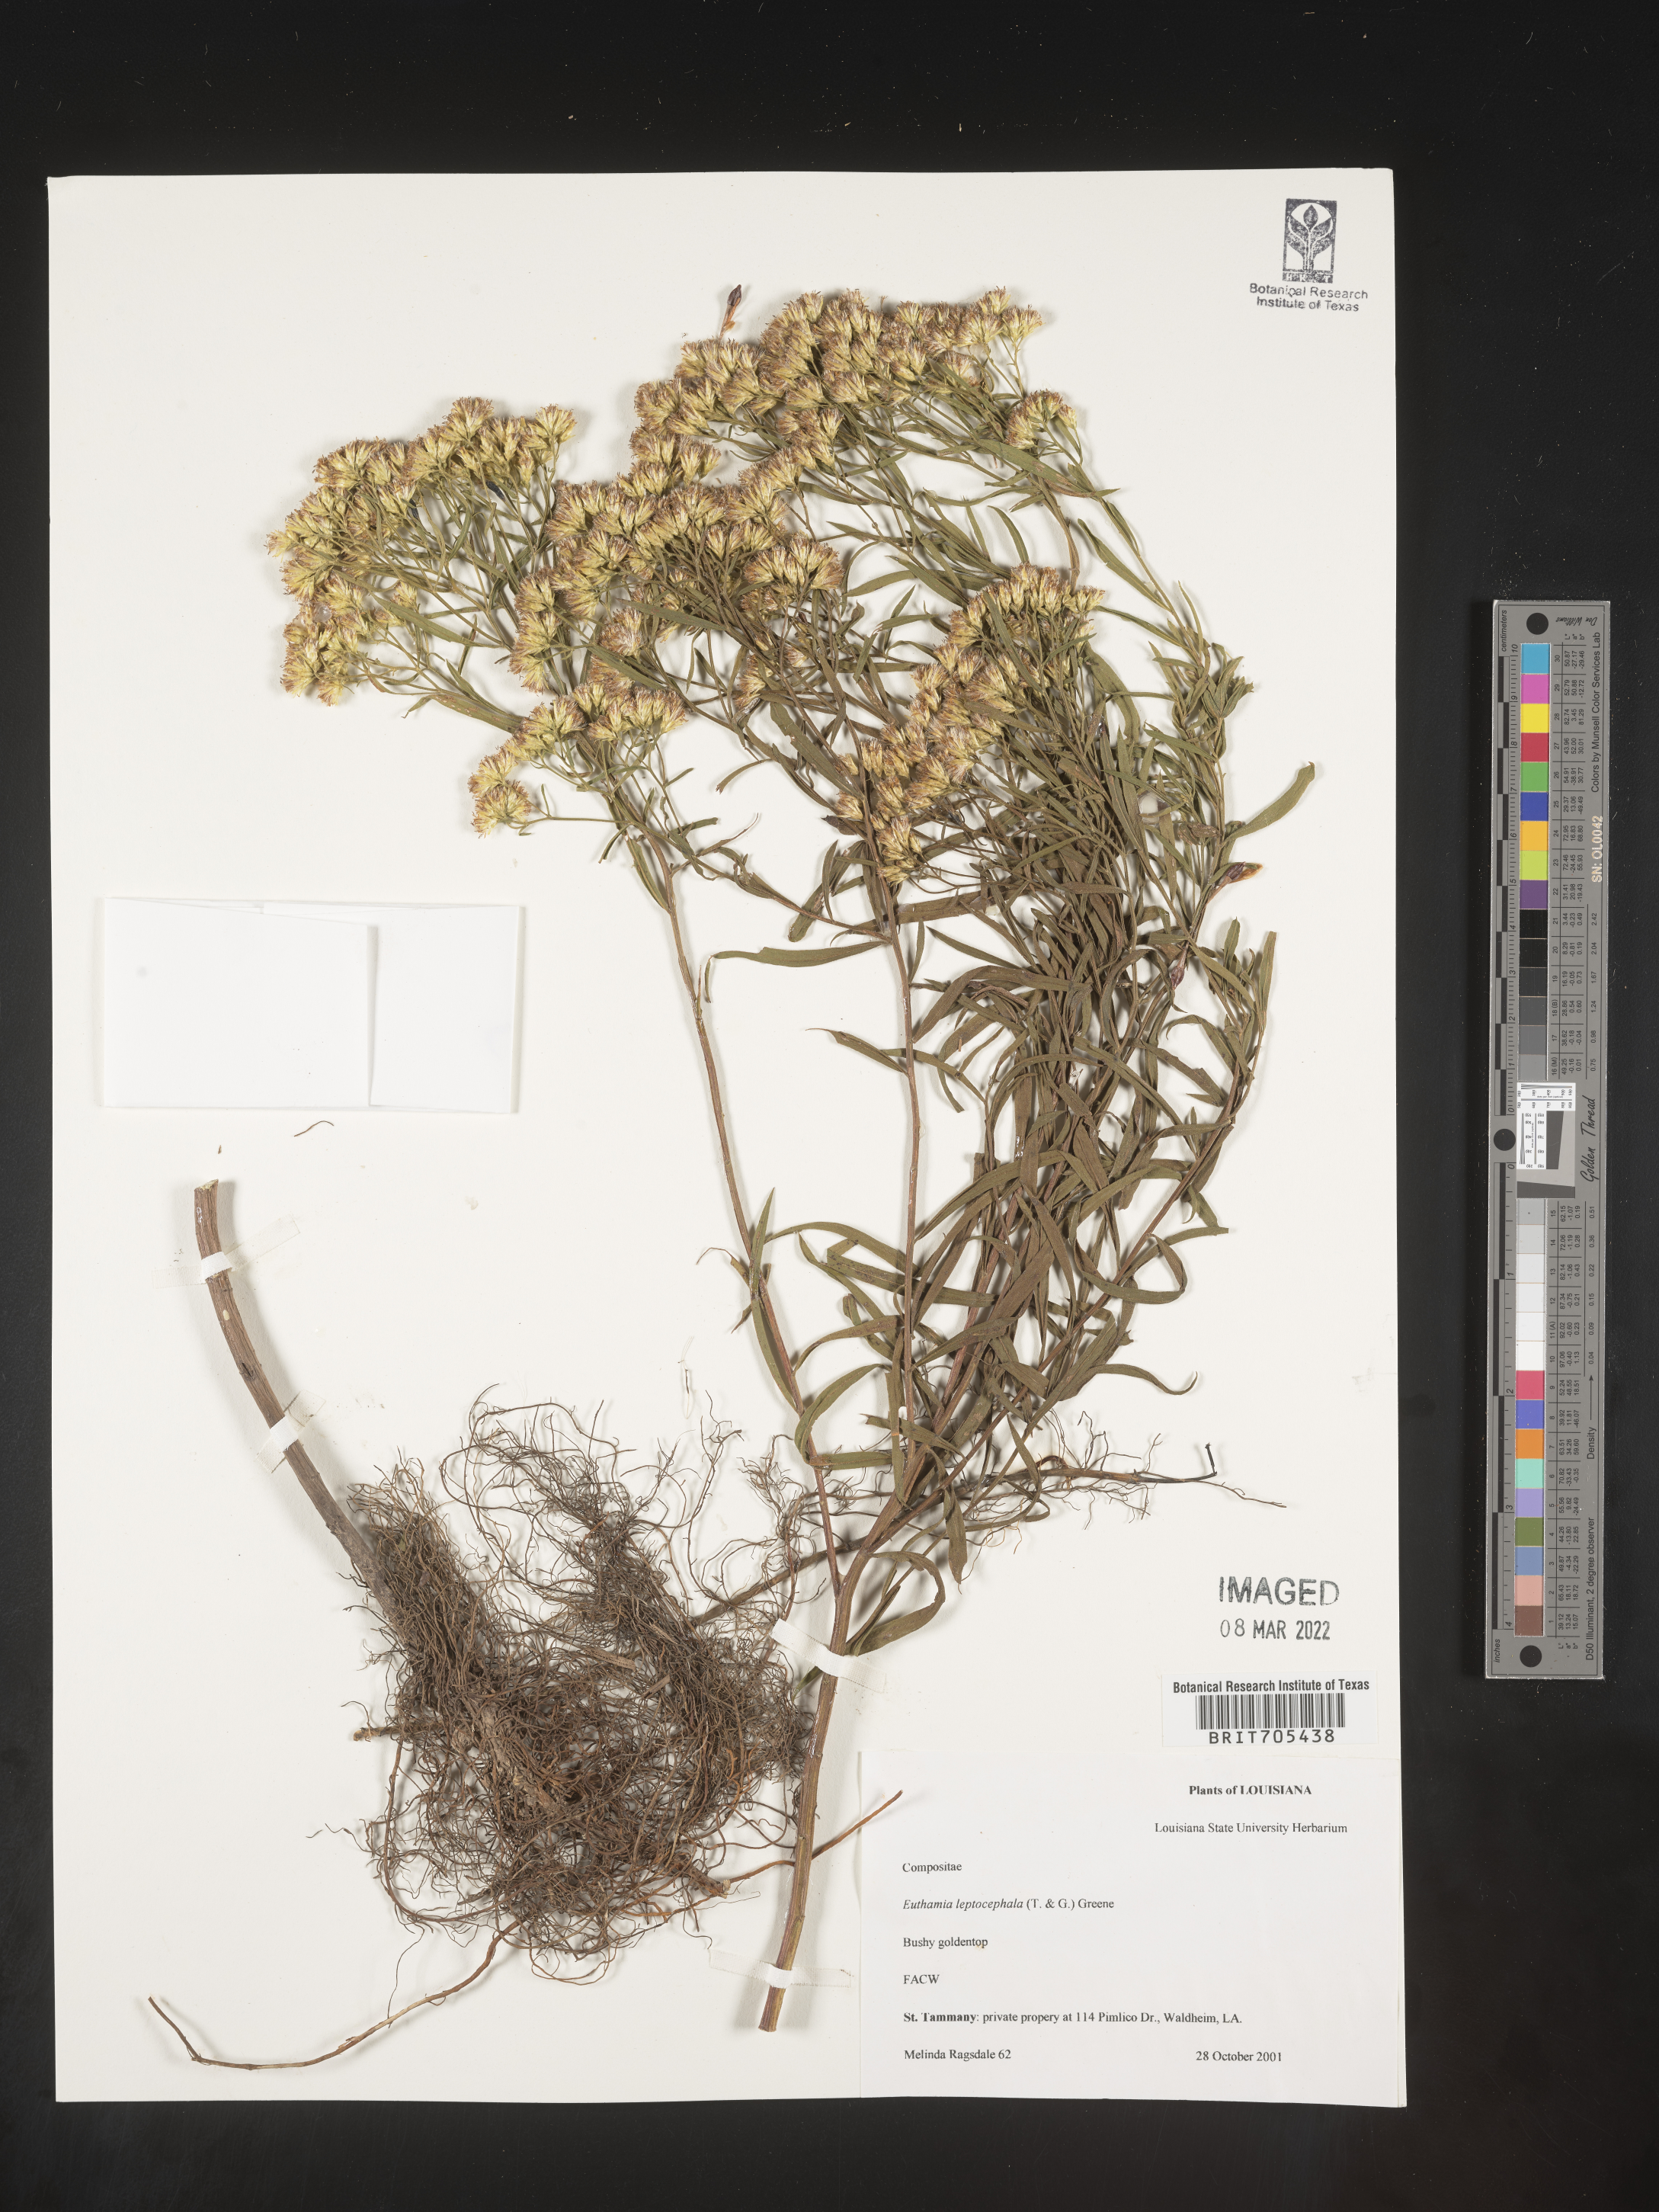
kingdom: Plantae
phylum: Tracheophyta
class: Magnoliopsida
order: Asterales
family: Asteraceae
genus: Euthamia
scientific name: Euthamia
